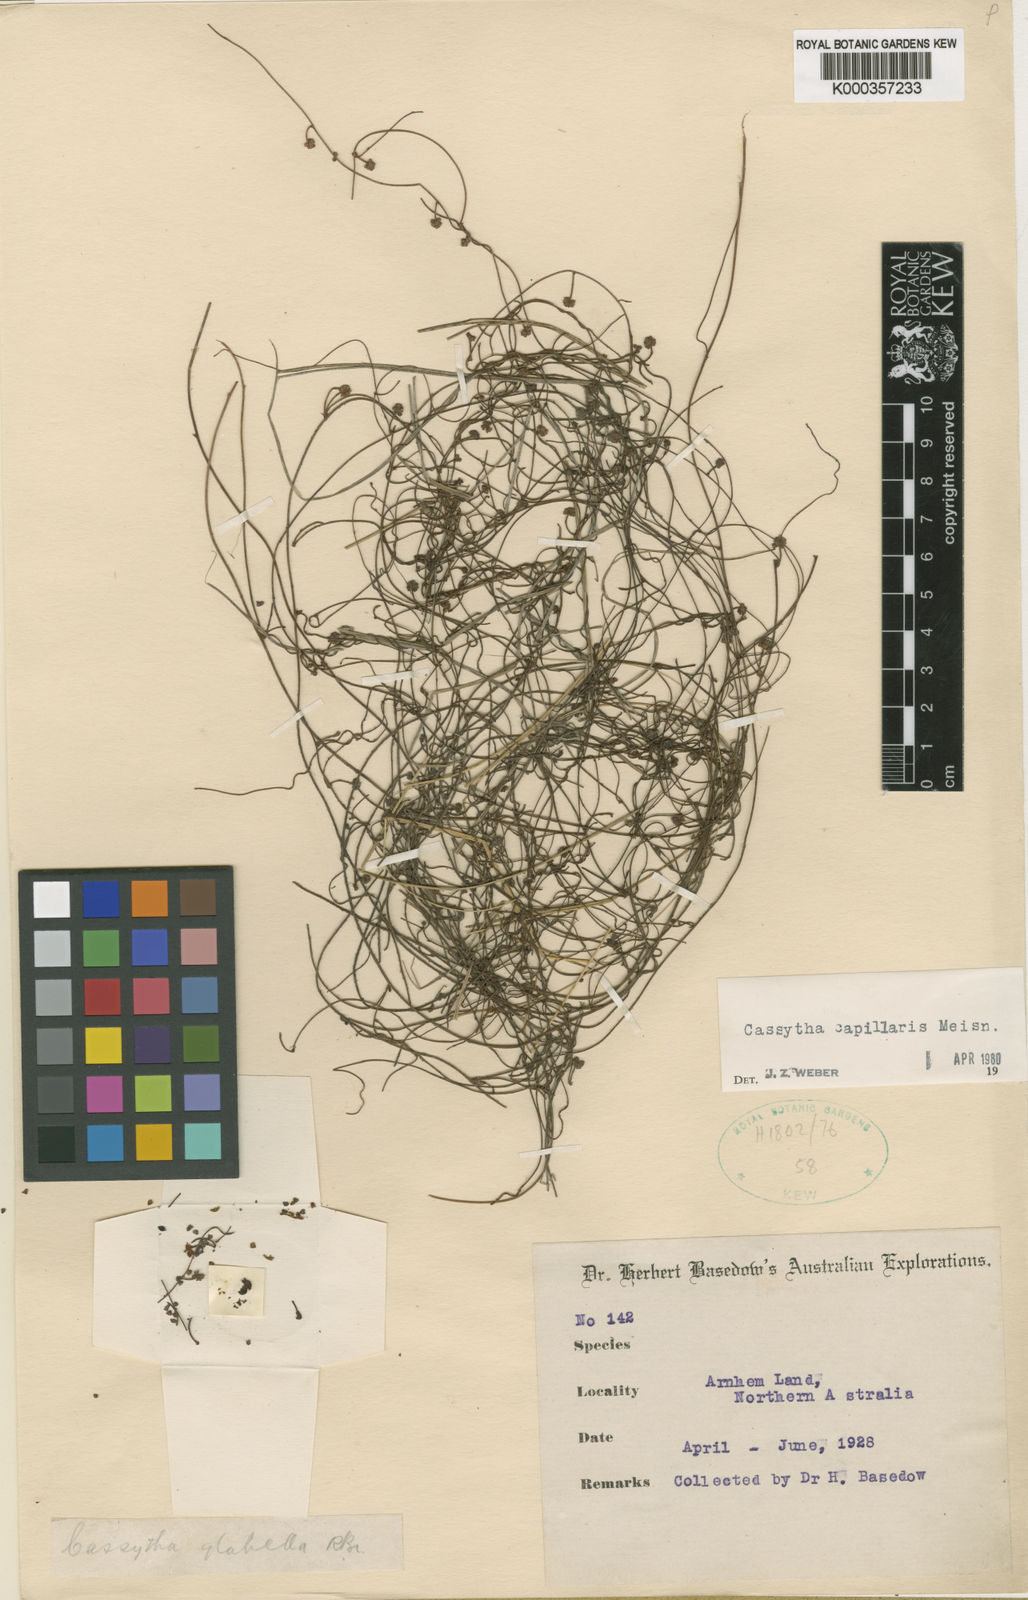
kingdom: Plantae
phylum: Tracheophyta
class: Magnoliopsida
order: Laurales
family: Lauraceae
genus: Cassytha
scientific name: Cassytha capillaris
